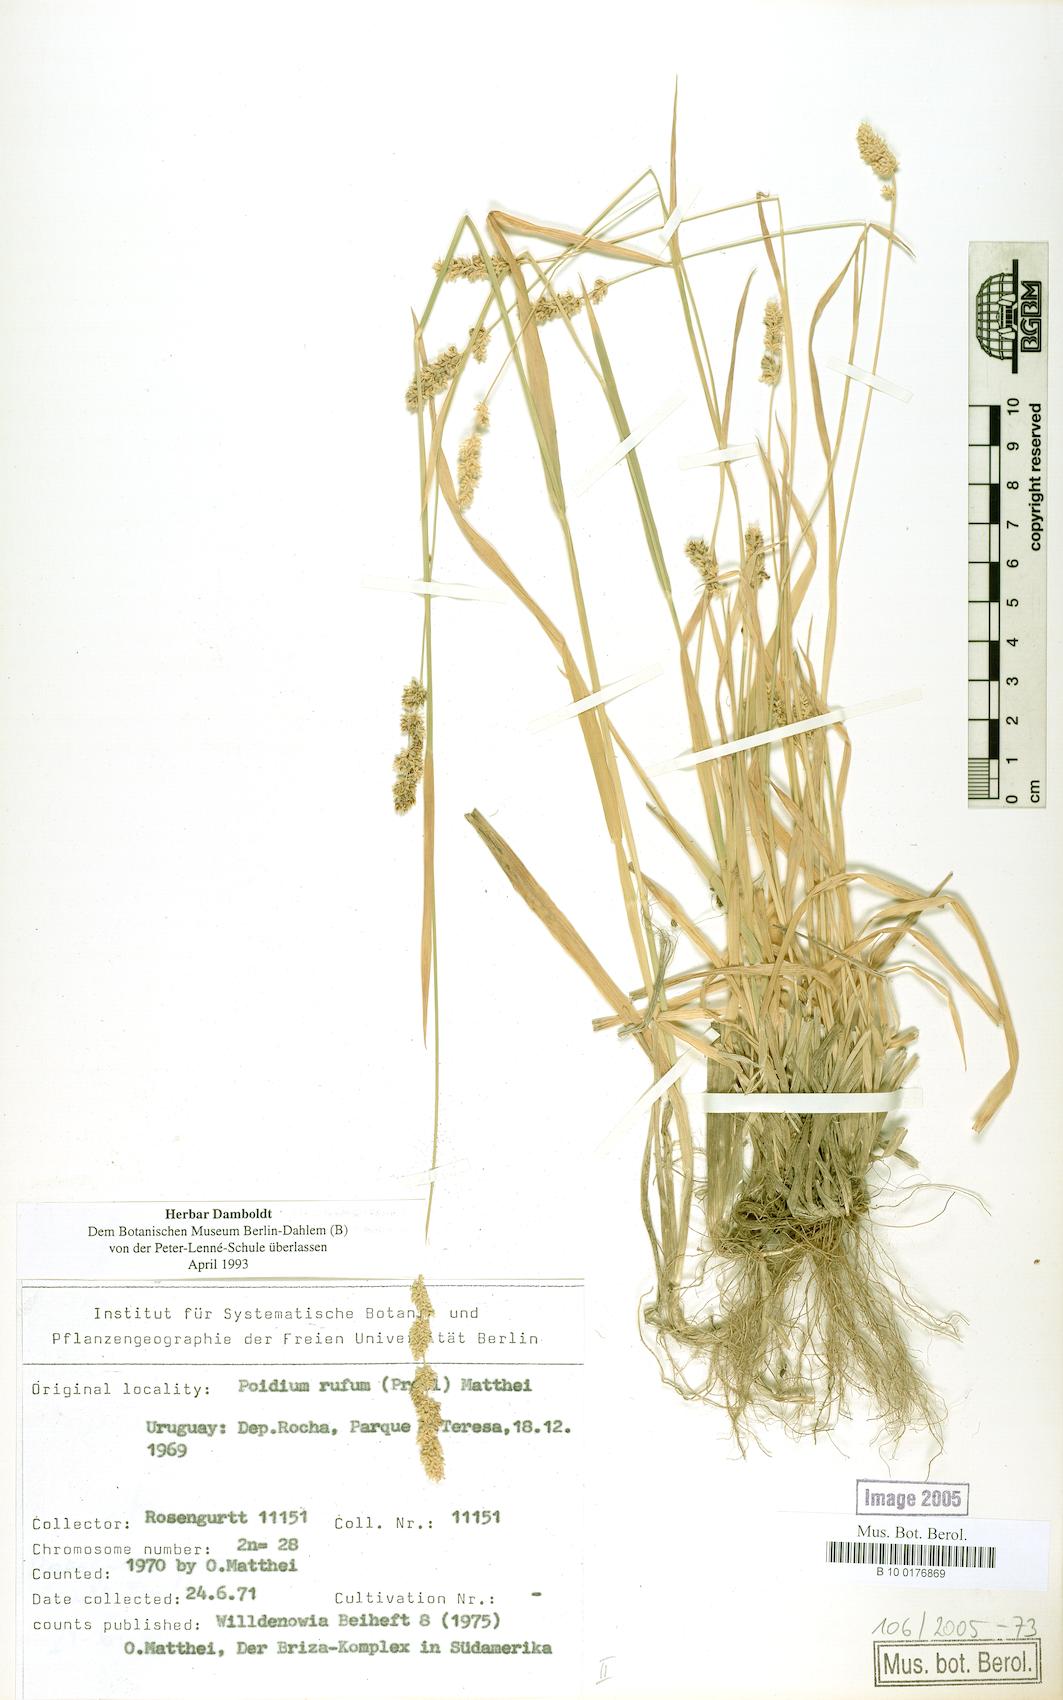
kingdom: Plantae
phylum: Tracheophyta
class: Liliopsida
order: Poales
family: Poaceae
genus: Lombardochloa
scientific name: Lombardochloa rufa
